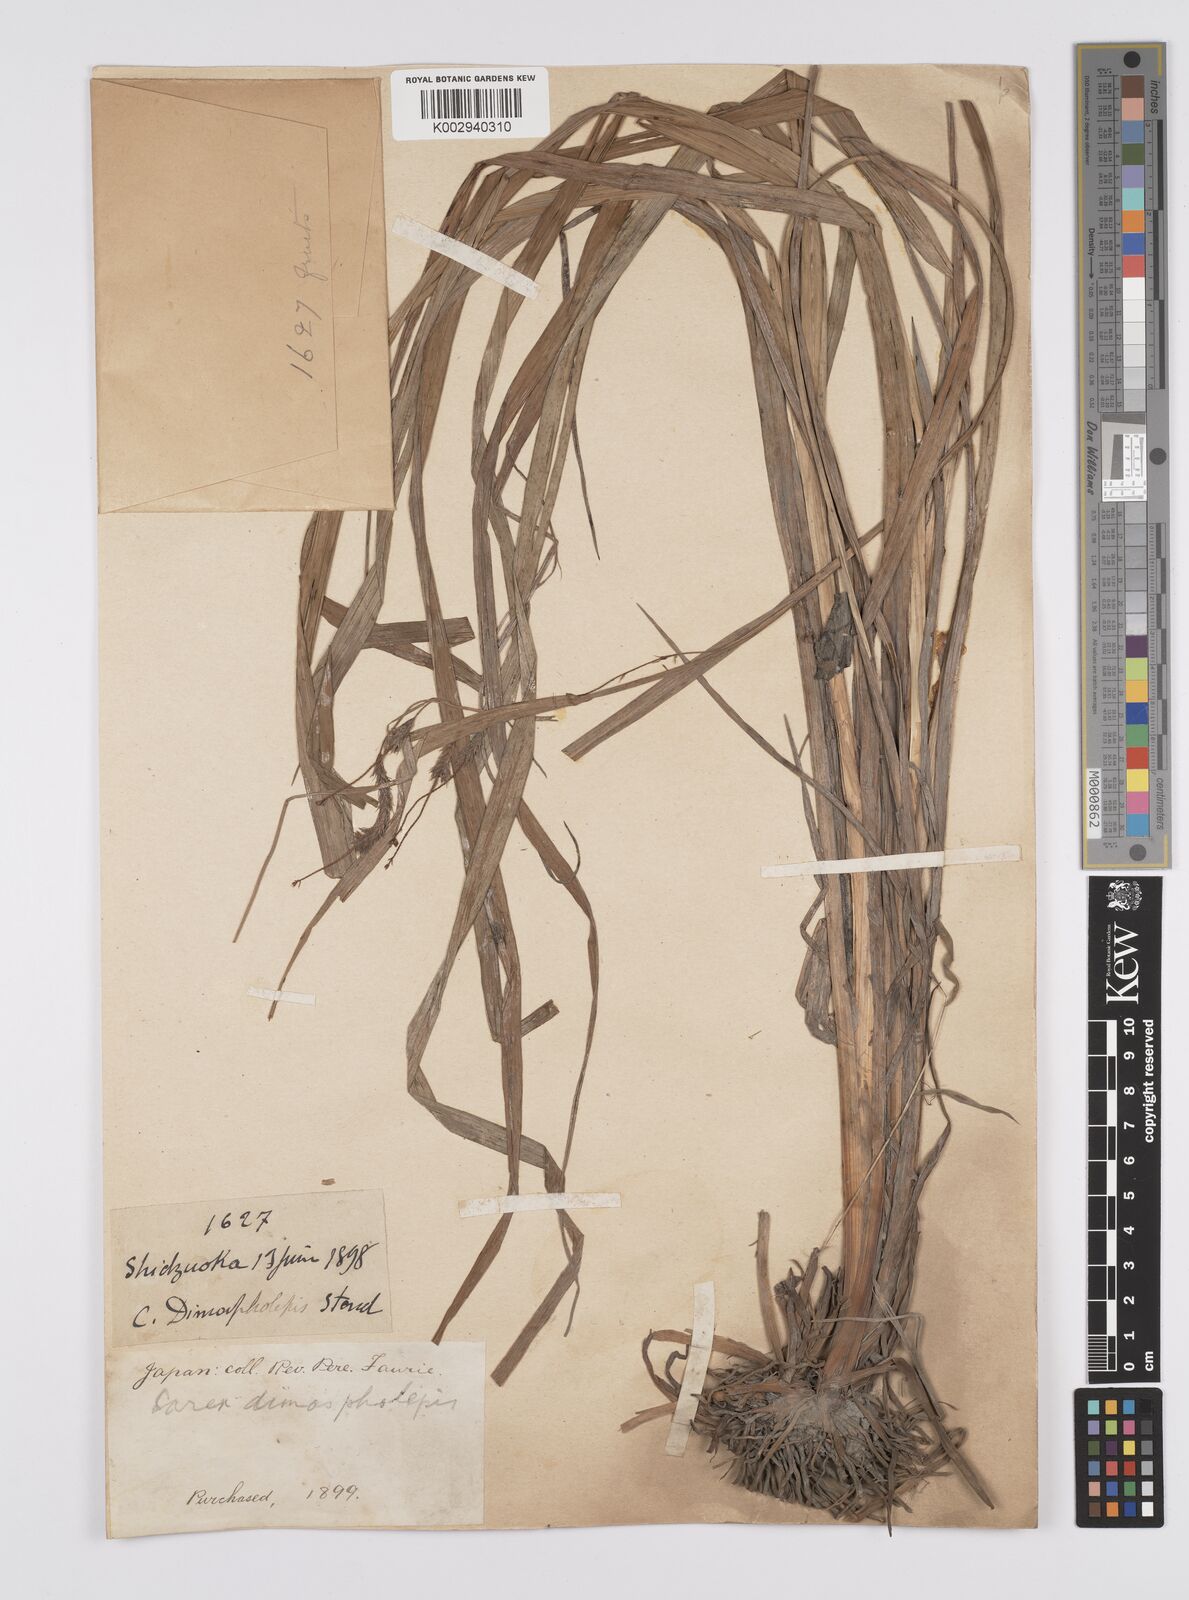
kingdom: Plantae
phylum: Tracheophyta
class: Liliopsida
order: Poales
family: Cyperaceae
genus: Carex
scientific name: Carex dimorpholepis
